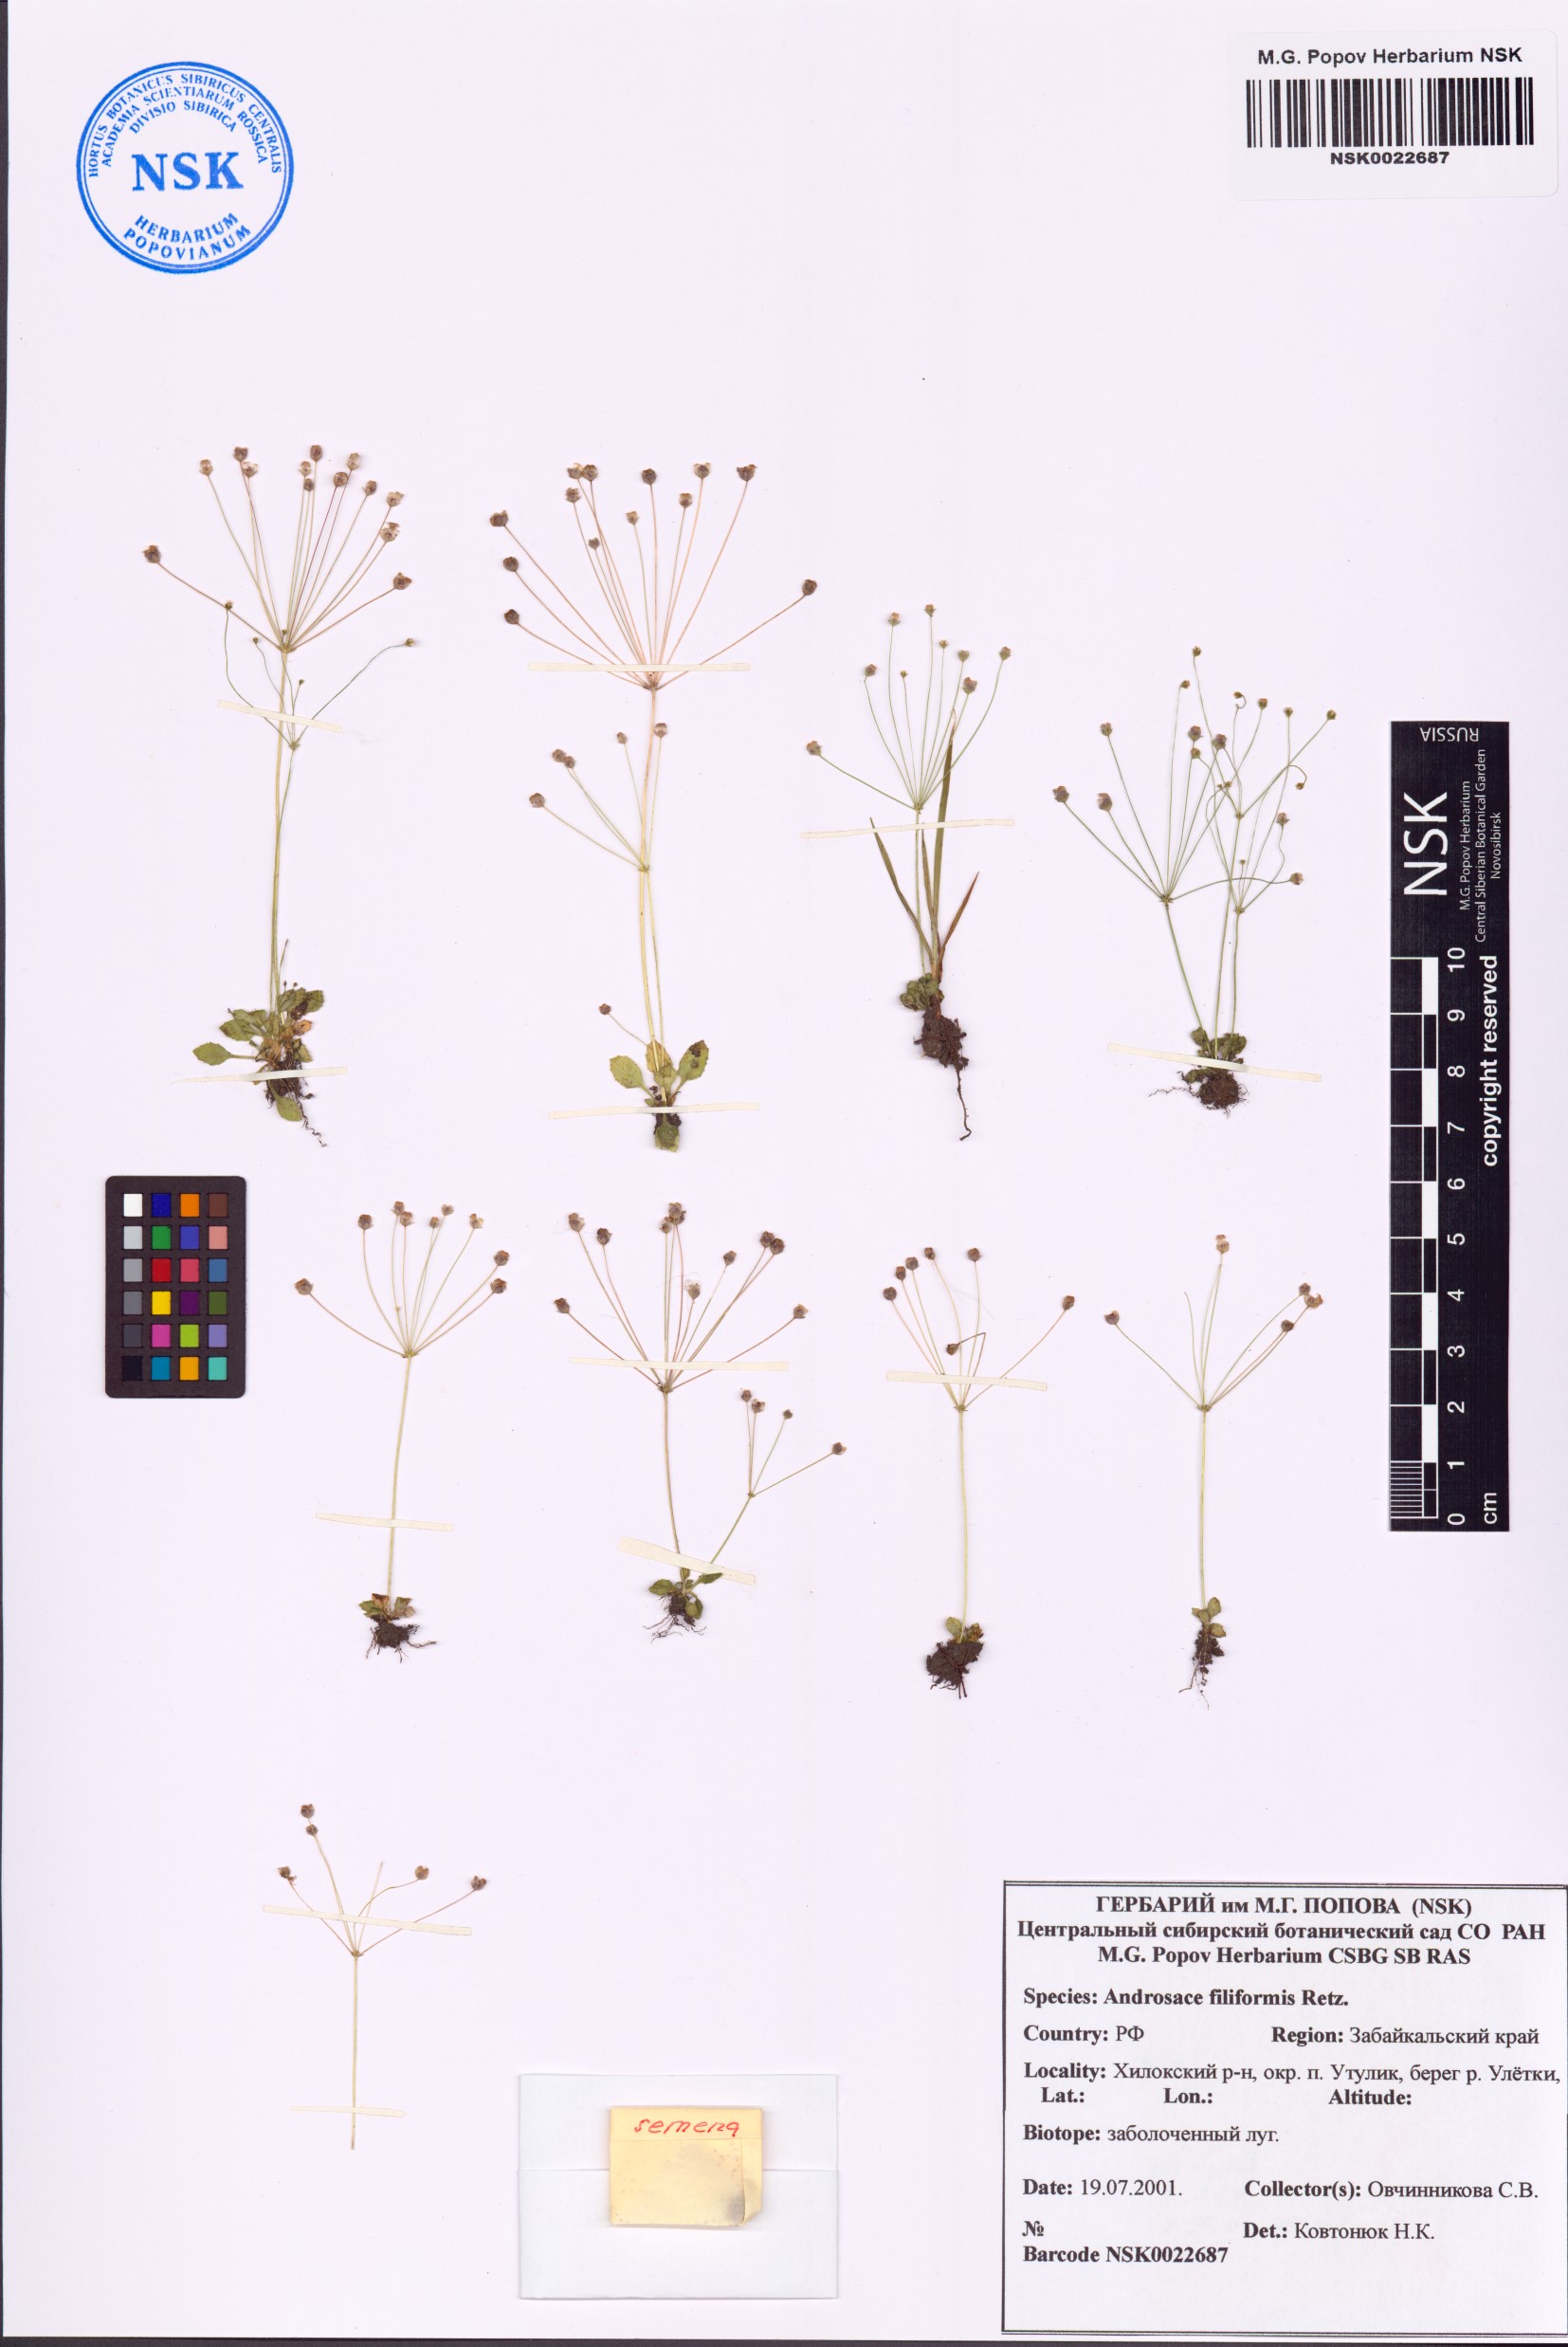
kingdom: Plantae
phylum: Tracheophyta
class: Magnoliopsida
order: Ericales
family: Primulaceae
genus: Androsace
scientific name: Androsace filiformis
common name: Filiform rock jasmine
